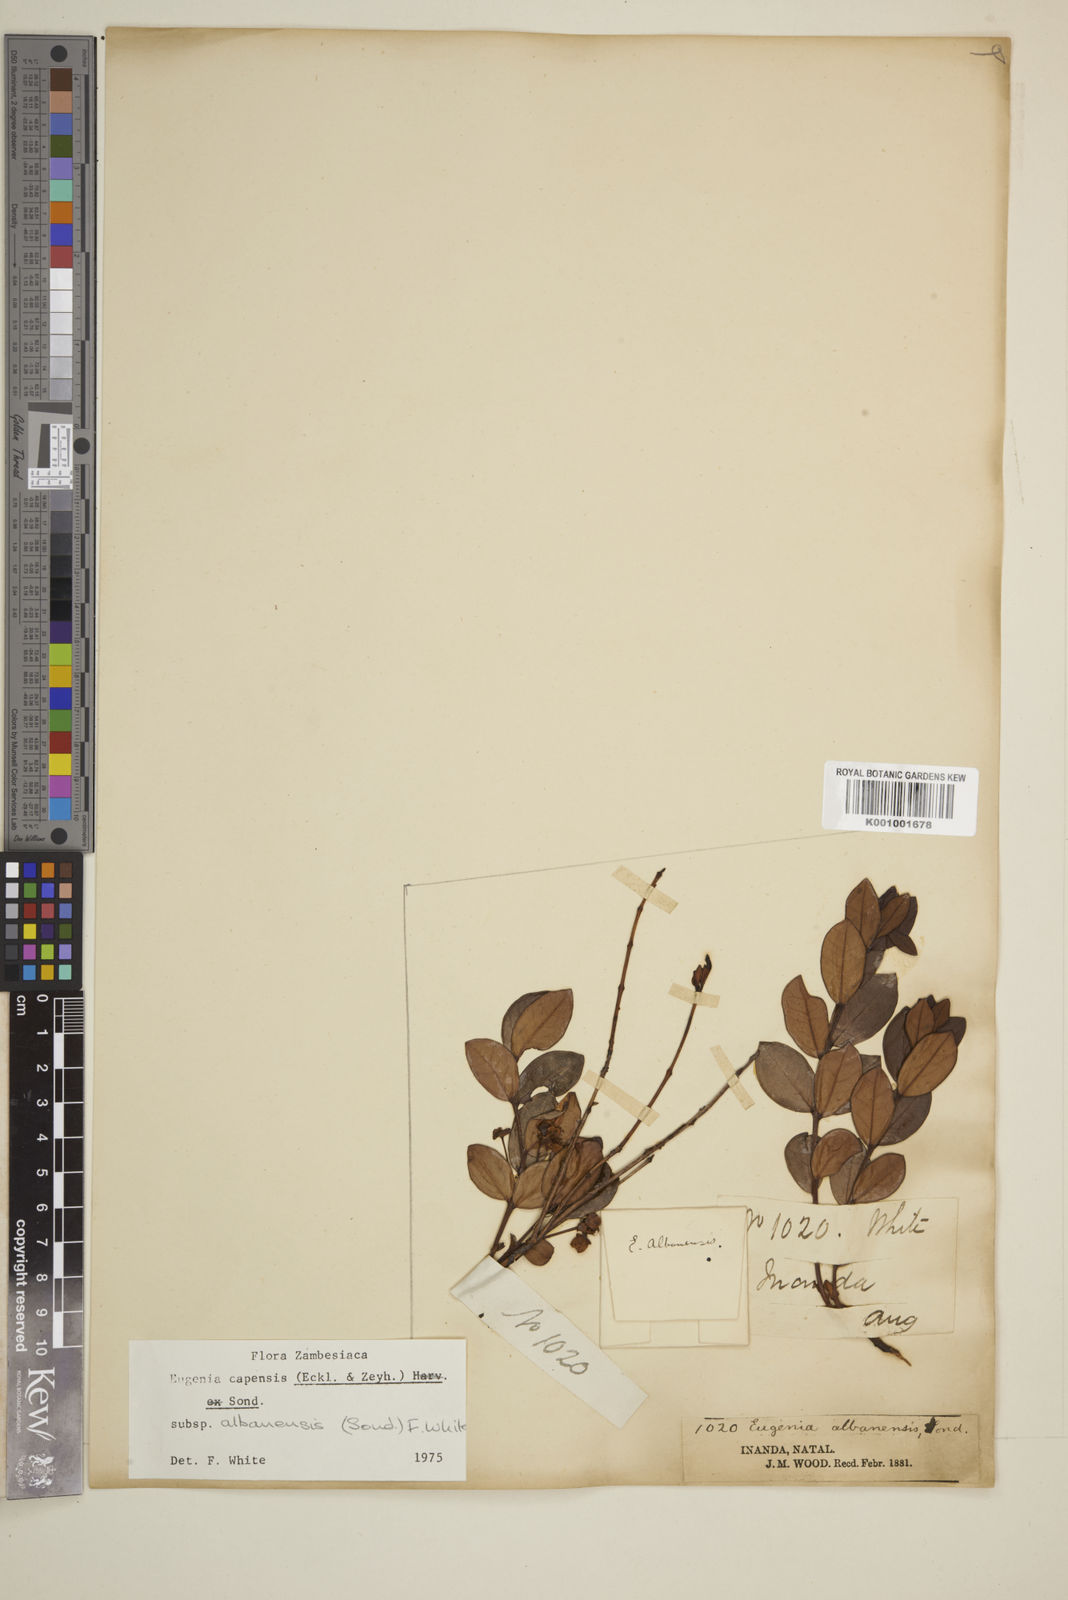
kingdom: Plantae
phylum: Tracheophyta
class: Magnoliopsida
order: Myrtales
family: Myrtaceae
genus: Eugenia
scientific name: Eugenia capensis
